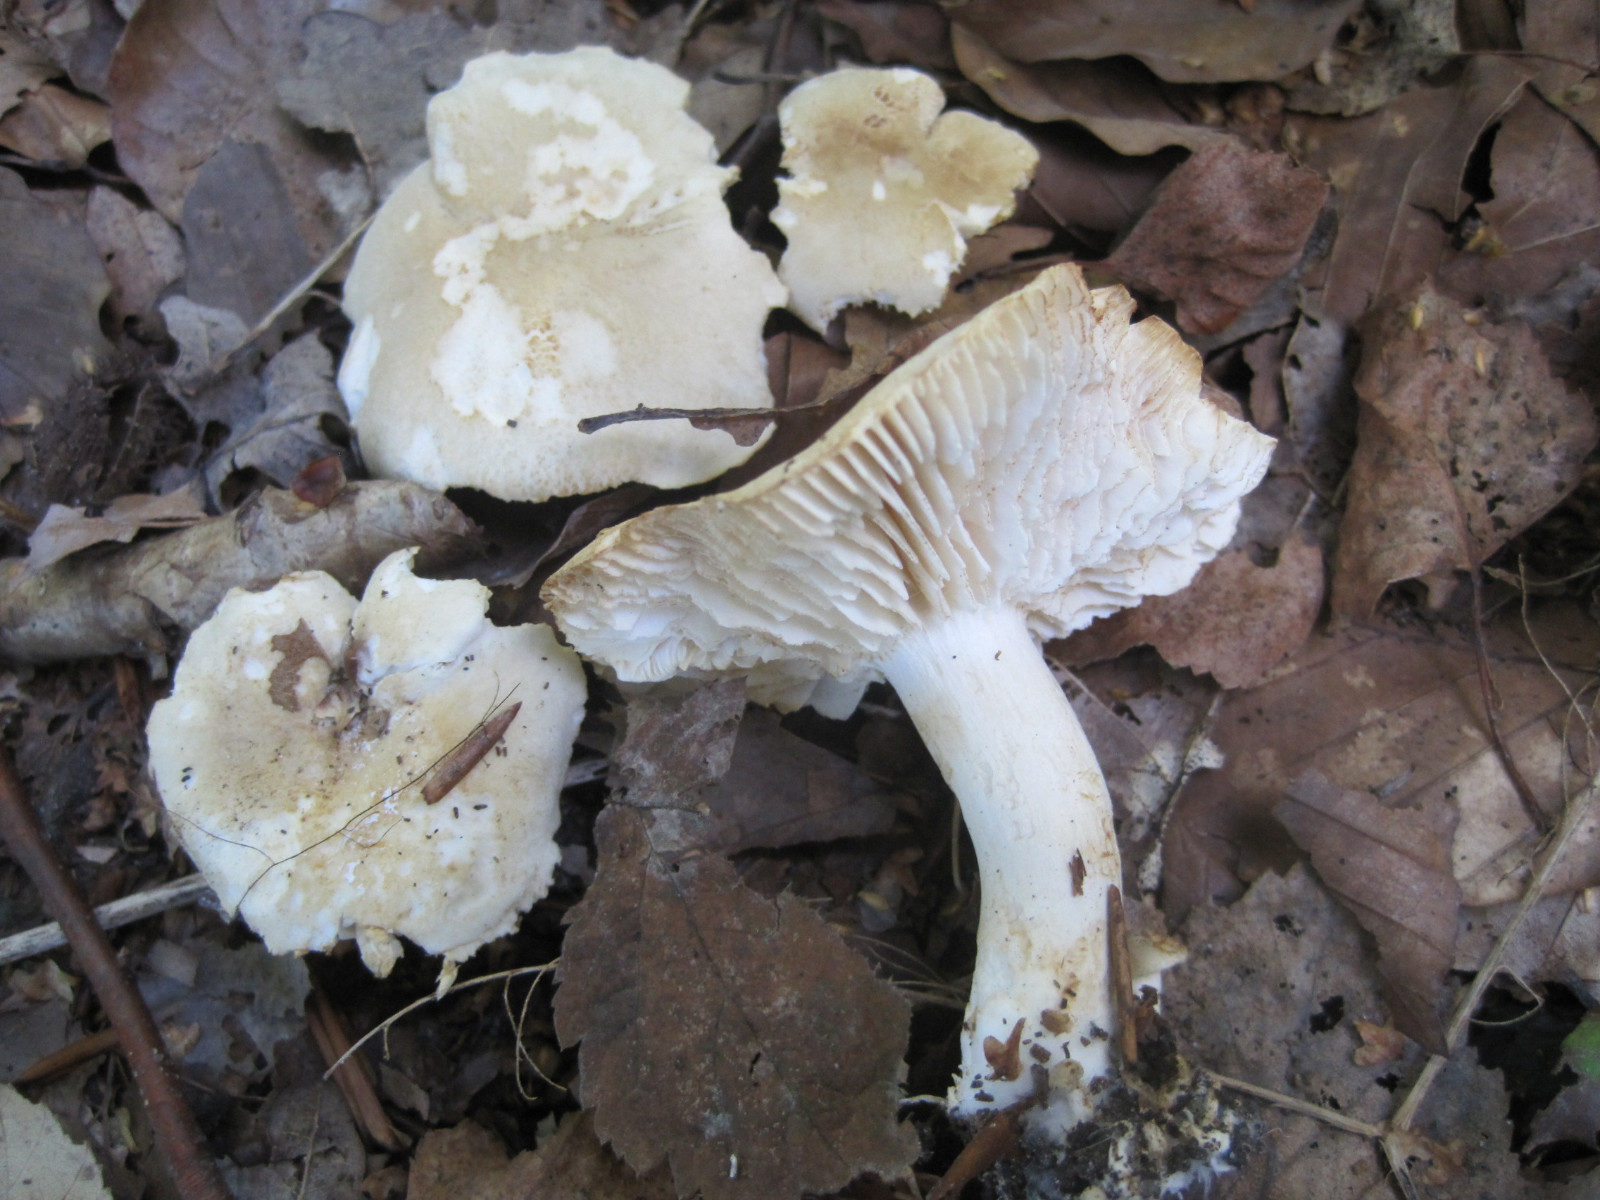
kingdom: Fungi
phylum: Basidiomycota
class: Agaricomycetes
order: Agaricales
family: Tricholomataceae
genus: Tricholoma
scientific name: Tricholoma lascivum
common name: stinkende ridderhat
